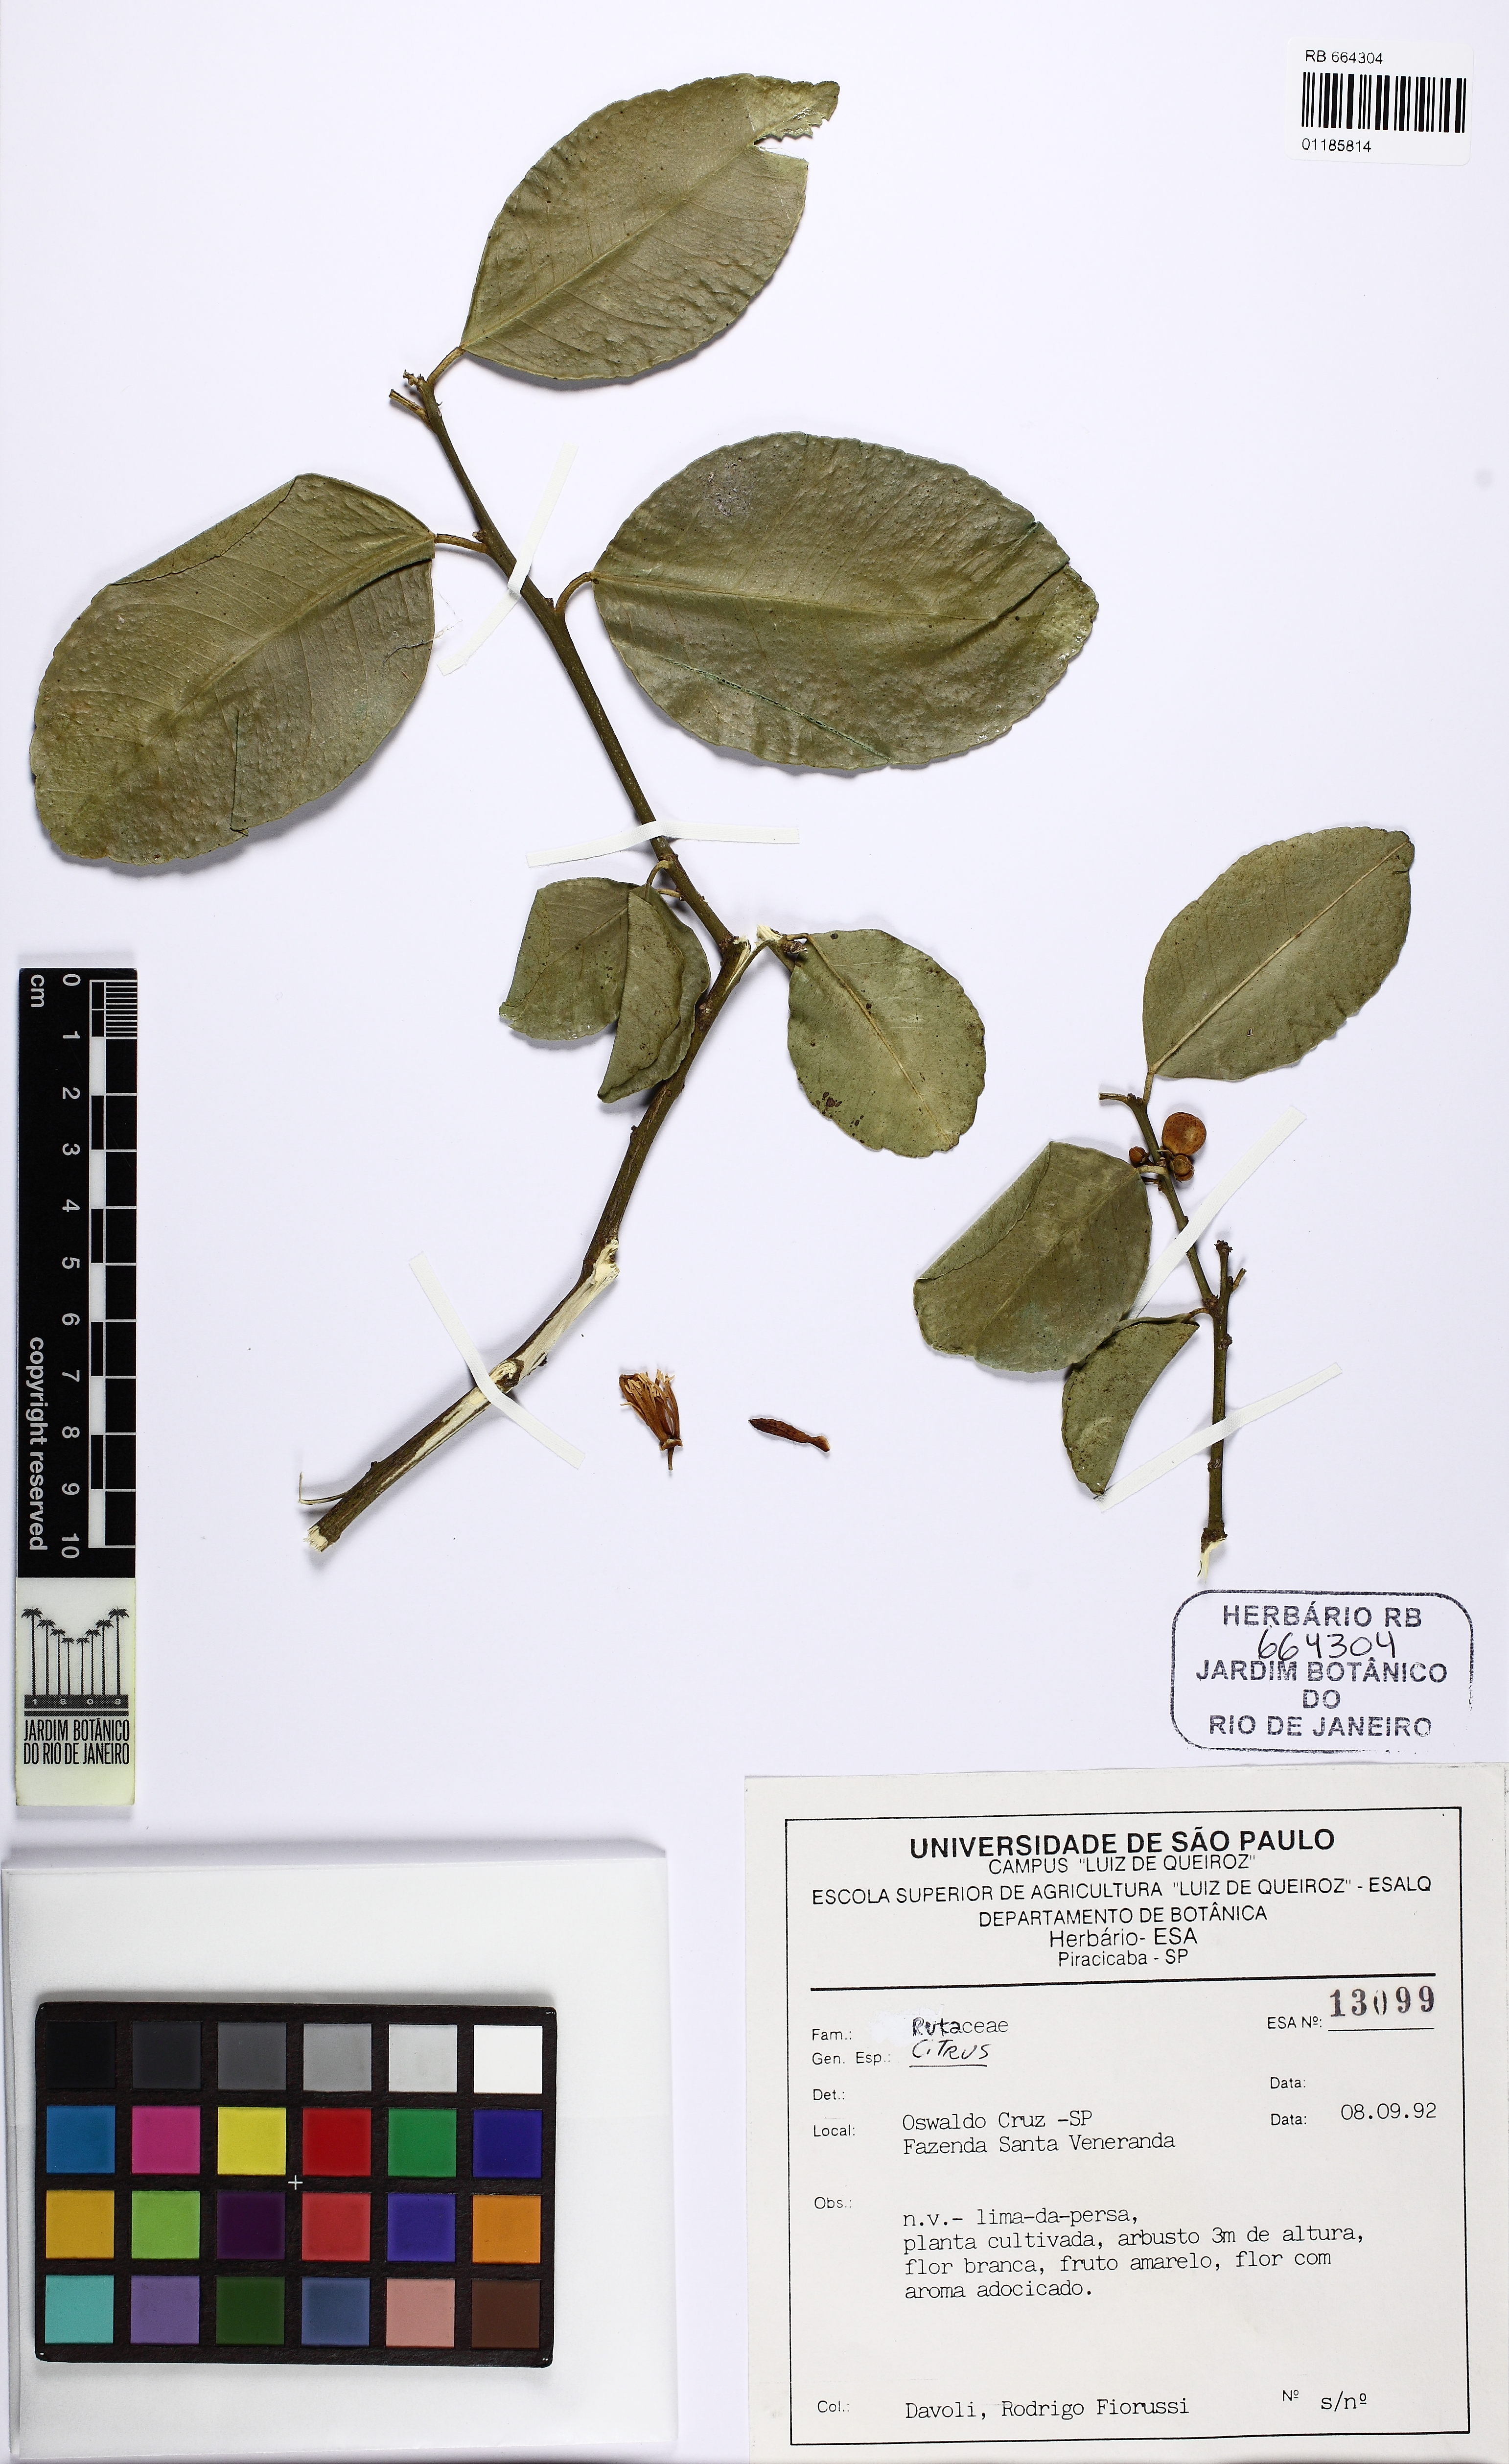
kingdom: Plantae
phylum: Tracheophyta
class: Magnoliopsida
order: Sapindales
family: Rutaceae
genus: Citrus
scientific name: Citrus
